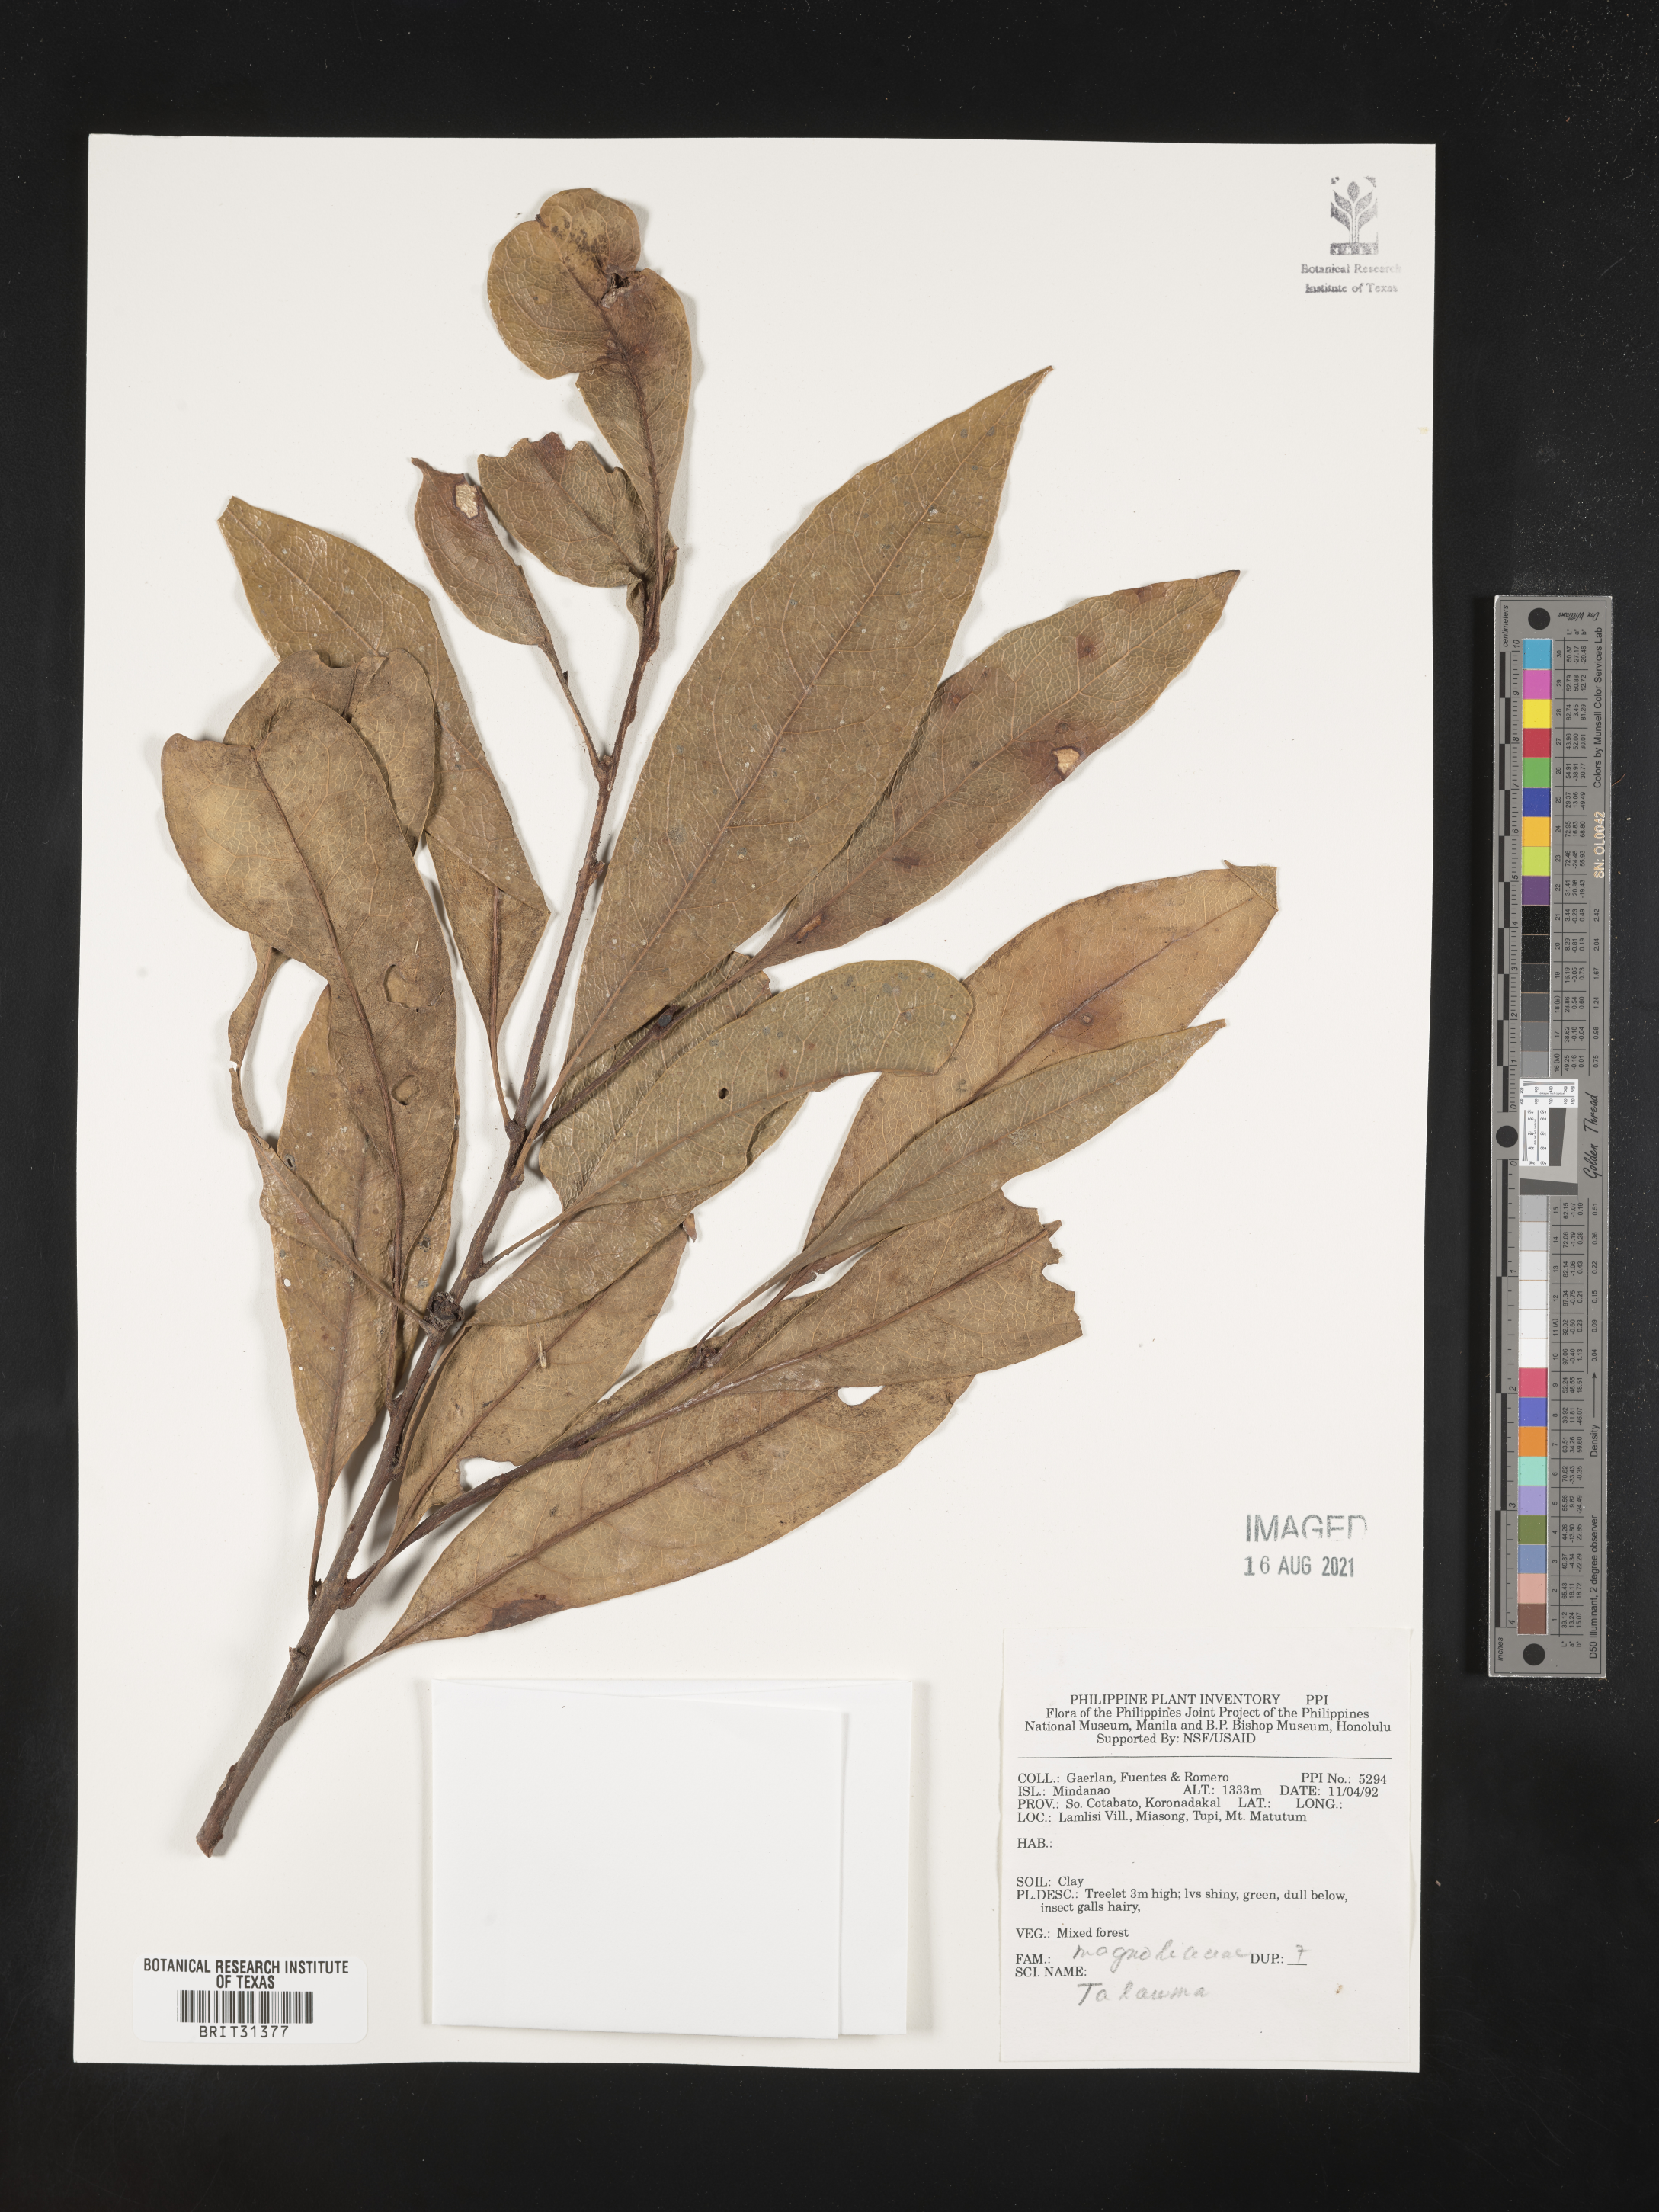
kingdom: Plantae
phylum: Tracheophyta
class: Magnoliopsida
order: Magnoliales
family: Magnoliaceae
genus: Magnolia
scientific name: Magnolia Talauma spec
